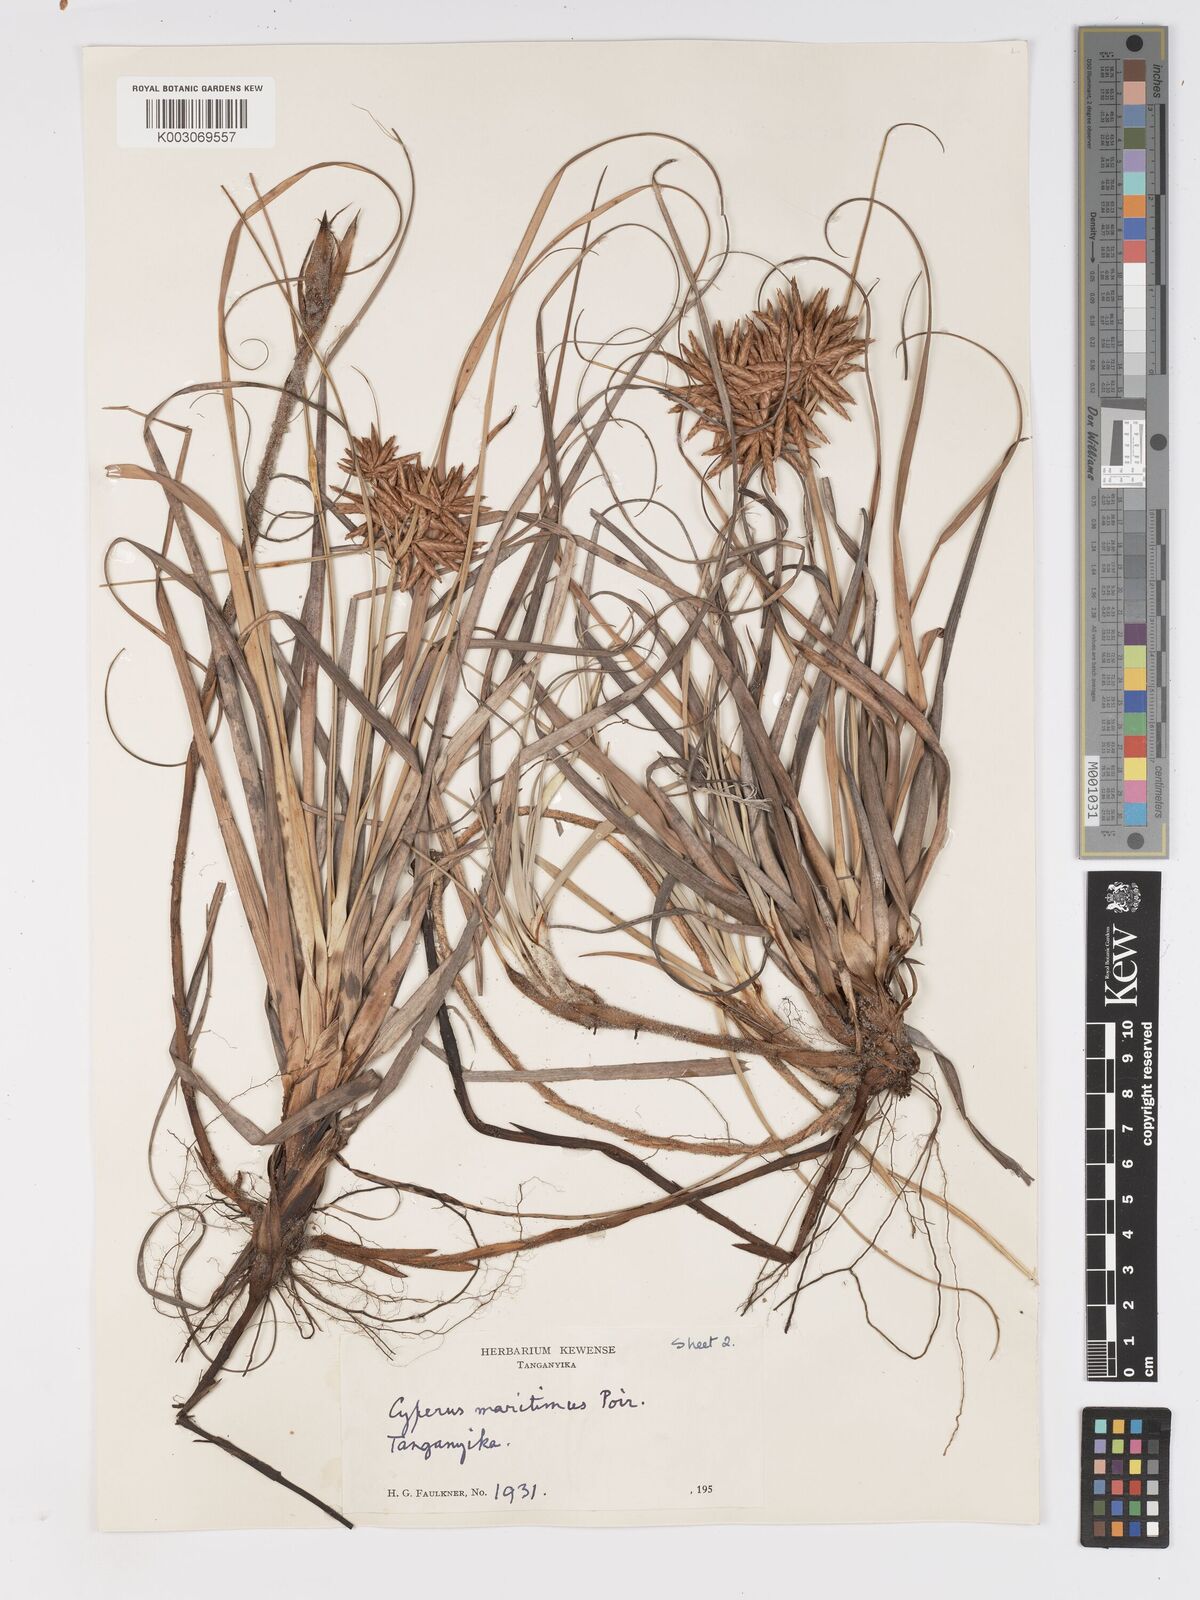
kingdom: Plantae
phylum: Tracheophyta
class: Liliopsida
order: Poales
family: Cyperaceae
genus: Cyperus
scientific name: Cyperus crassipes
